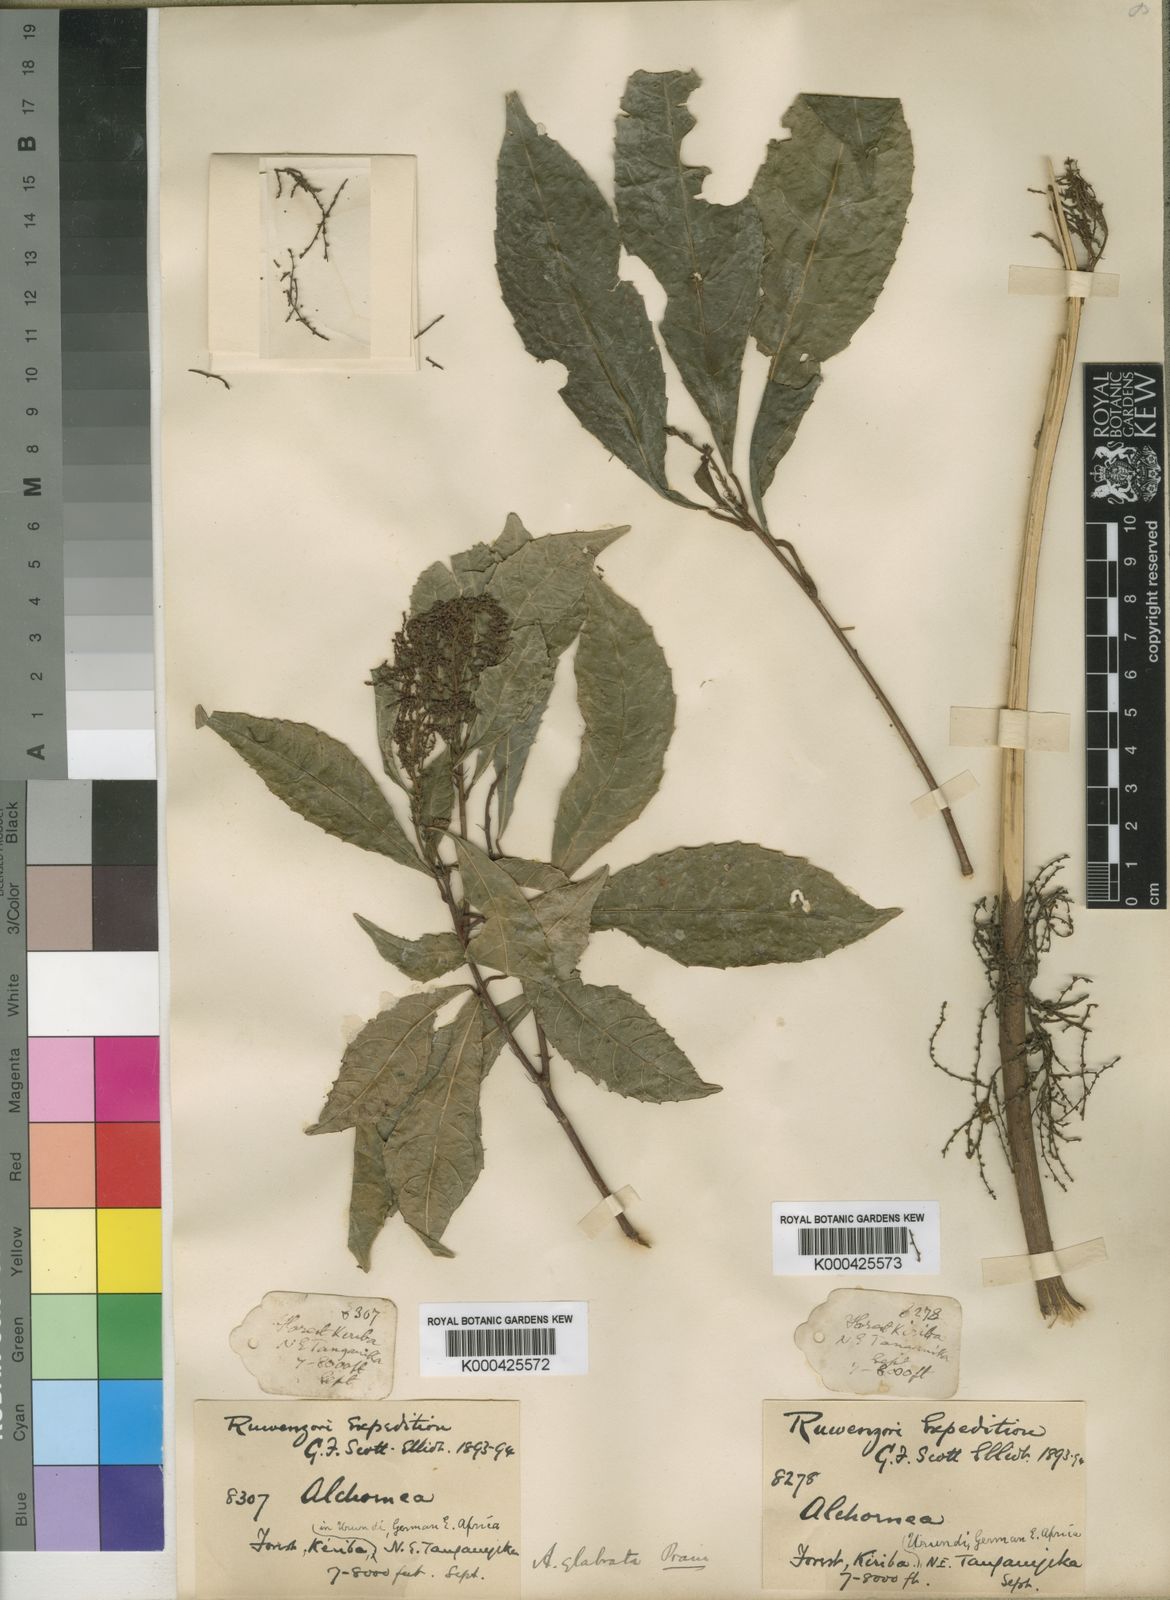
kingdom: Plantae
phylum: Tracheophyta
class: Magnoliopsida
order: Malpighiales
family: Euphorbiaceae
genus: Alchornea
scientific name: Alchornea hirtella
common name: Forest bead-string
